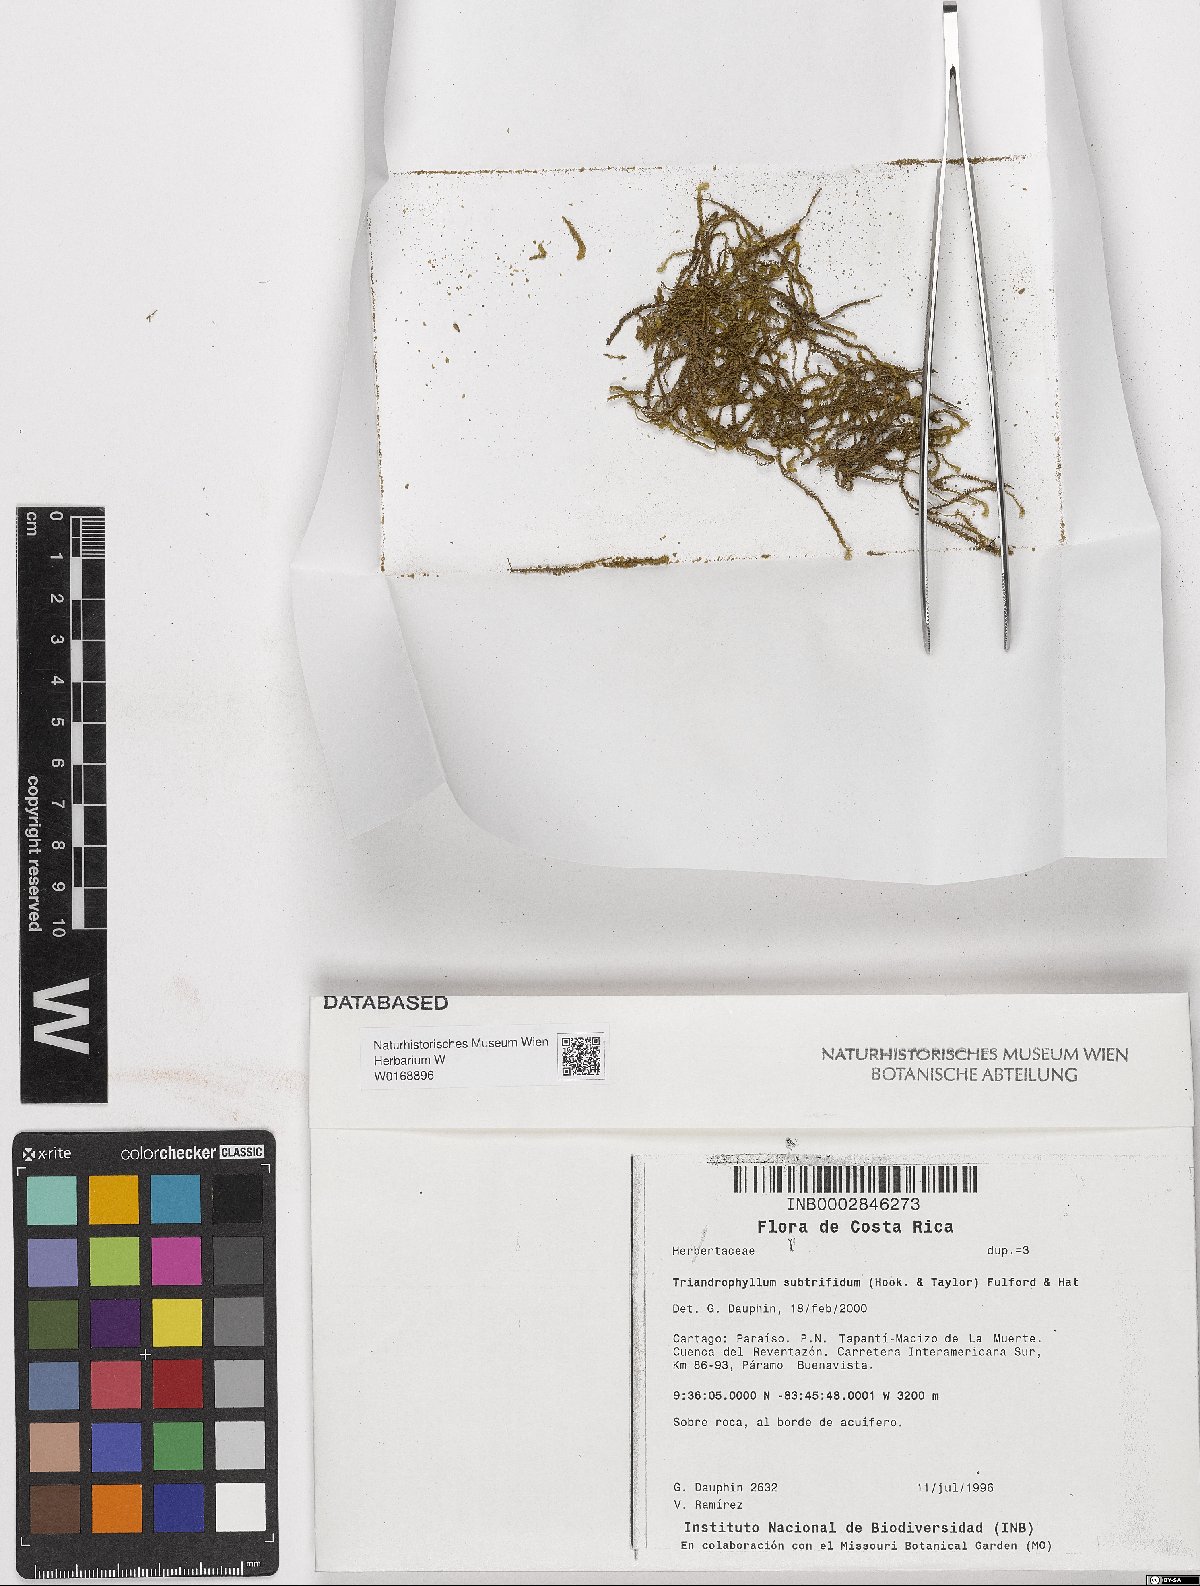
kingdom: Plantae
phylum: Marchantiophyta
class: Jungermanniopsida
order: Jungermanniales
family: Herbertaceae
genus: Triandrophyllum
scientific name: Triandrophyllum subtrifidum
